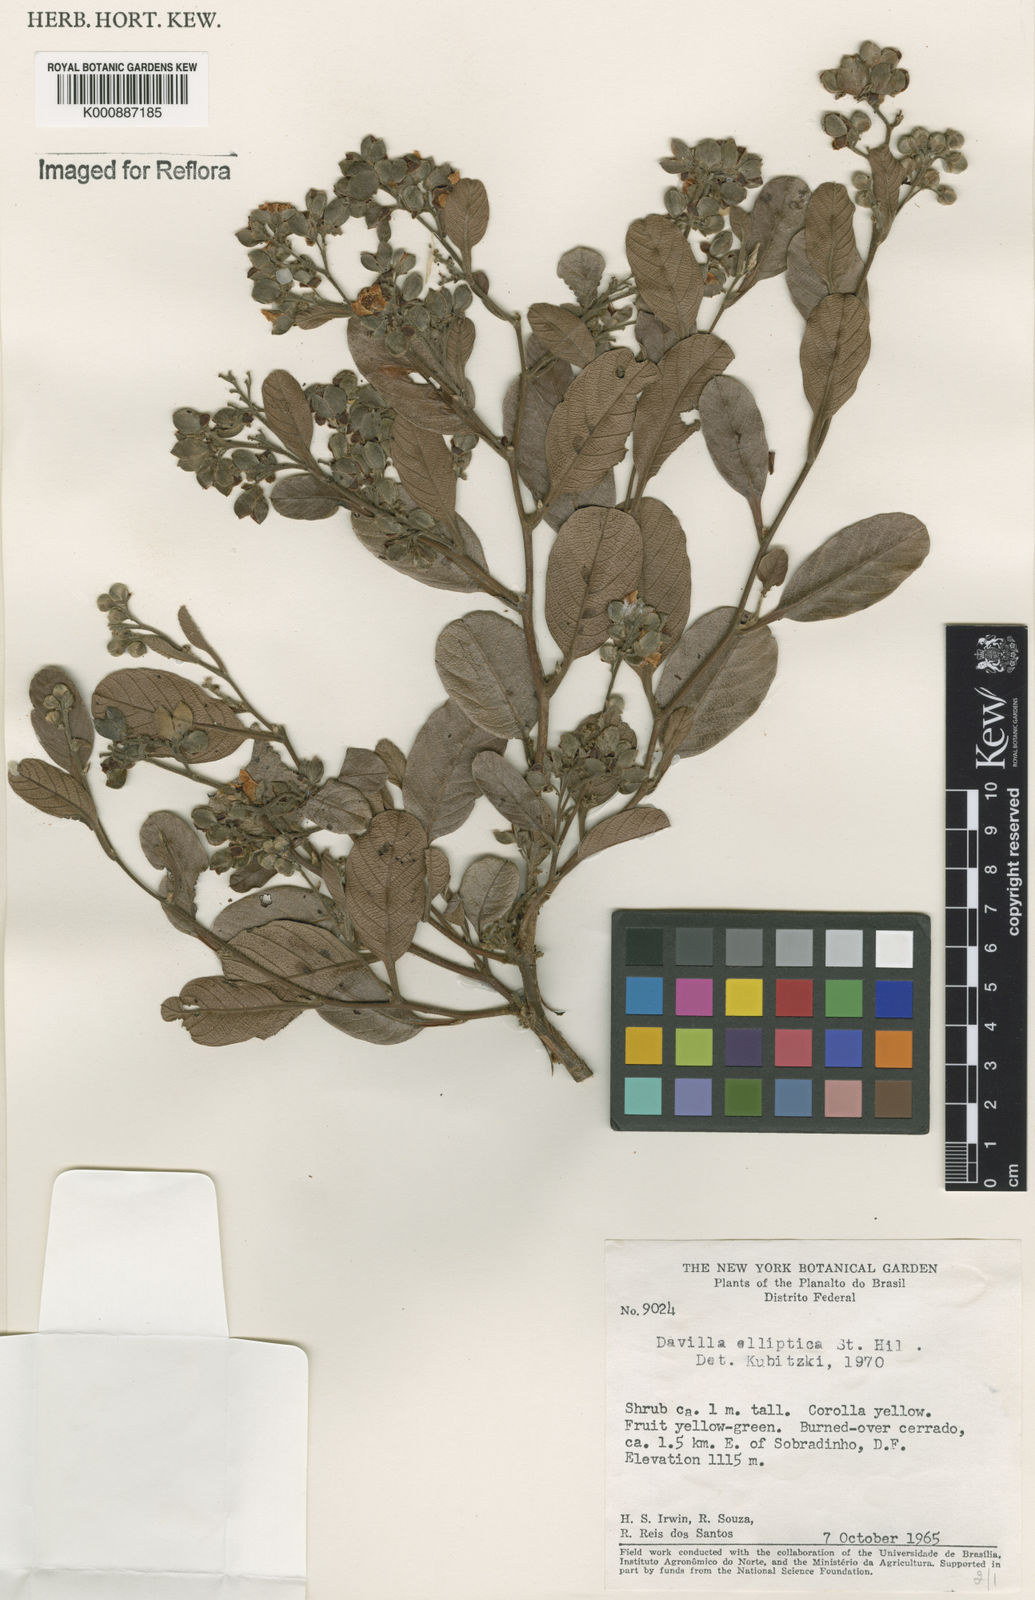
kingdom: Plantae
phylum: Tracheophyta
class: Magnoliopsida
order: Dilleniales
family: Dilleniaceae
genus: Davilla
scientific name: Davilla elliptica
